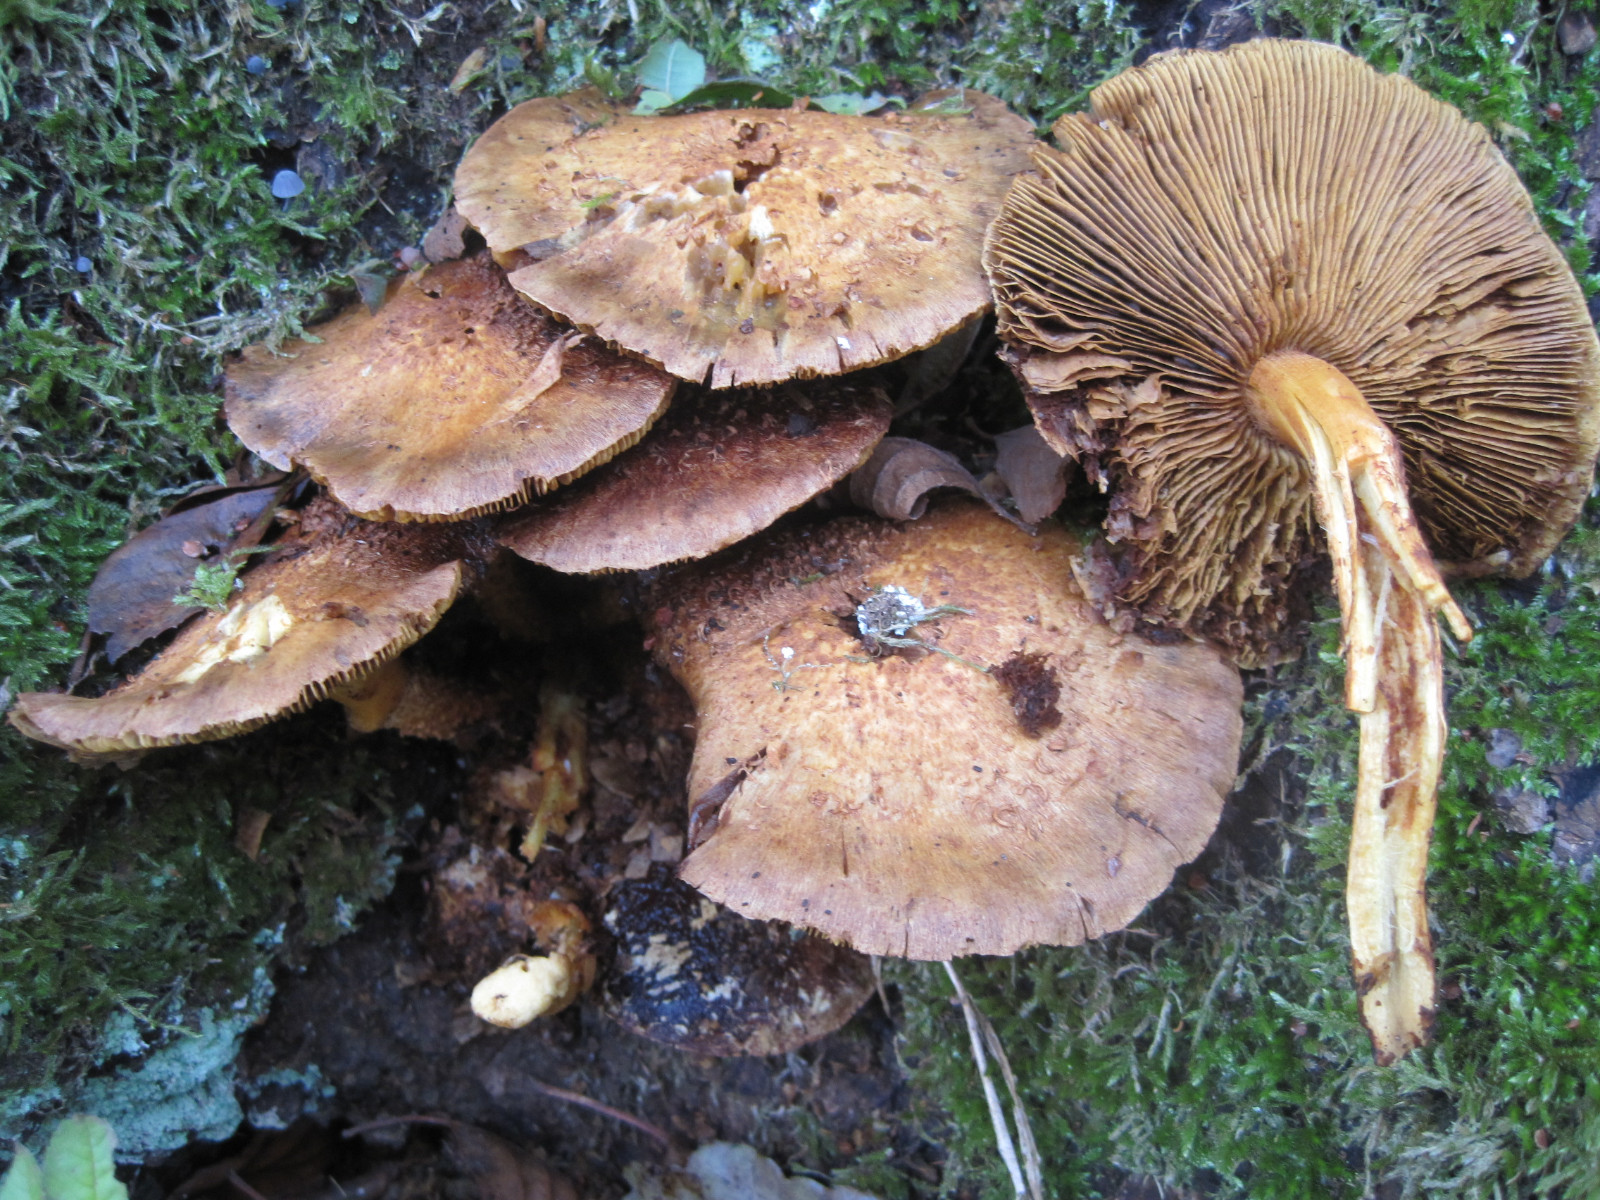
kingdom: Fungi
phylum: Basidiomycota
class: Agaricomycetes
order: Agaricales
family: Hymenogastraceae
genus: Gymnopilus
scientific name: Gymnopilus spectabilis
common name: fibret flammehat
